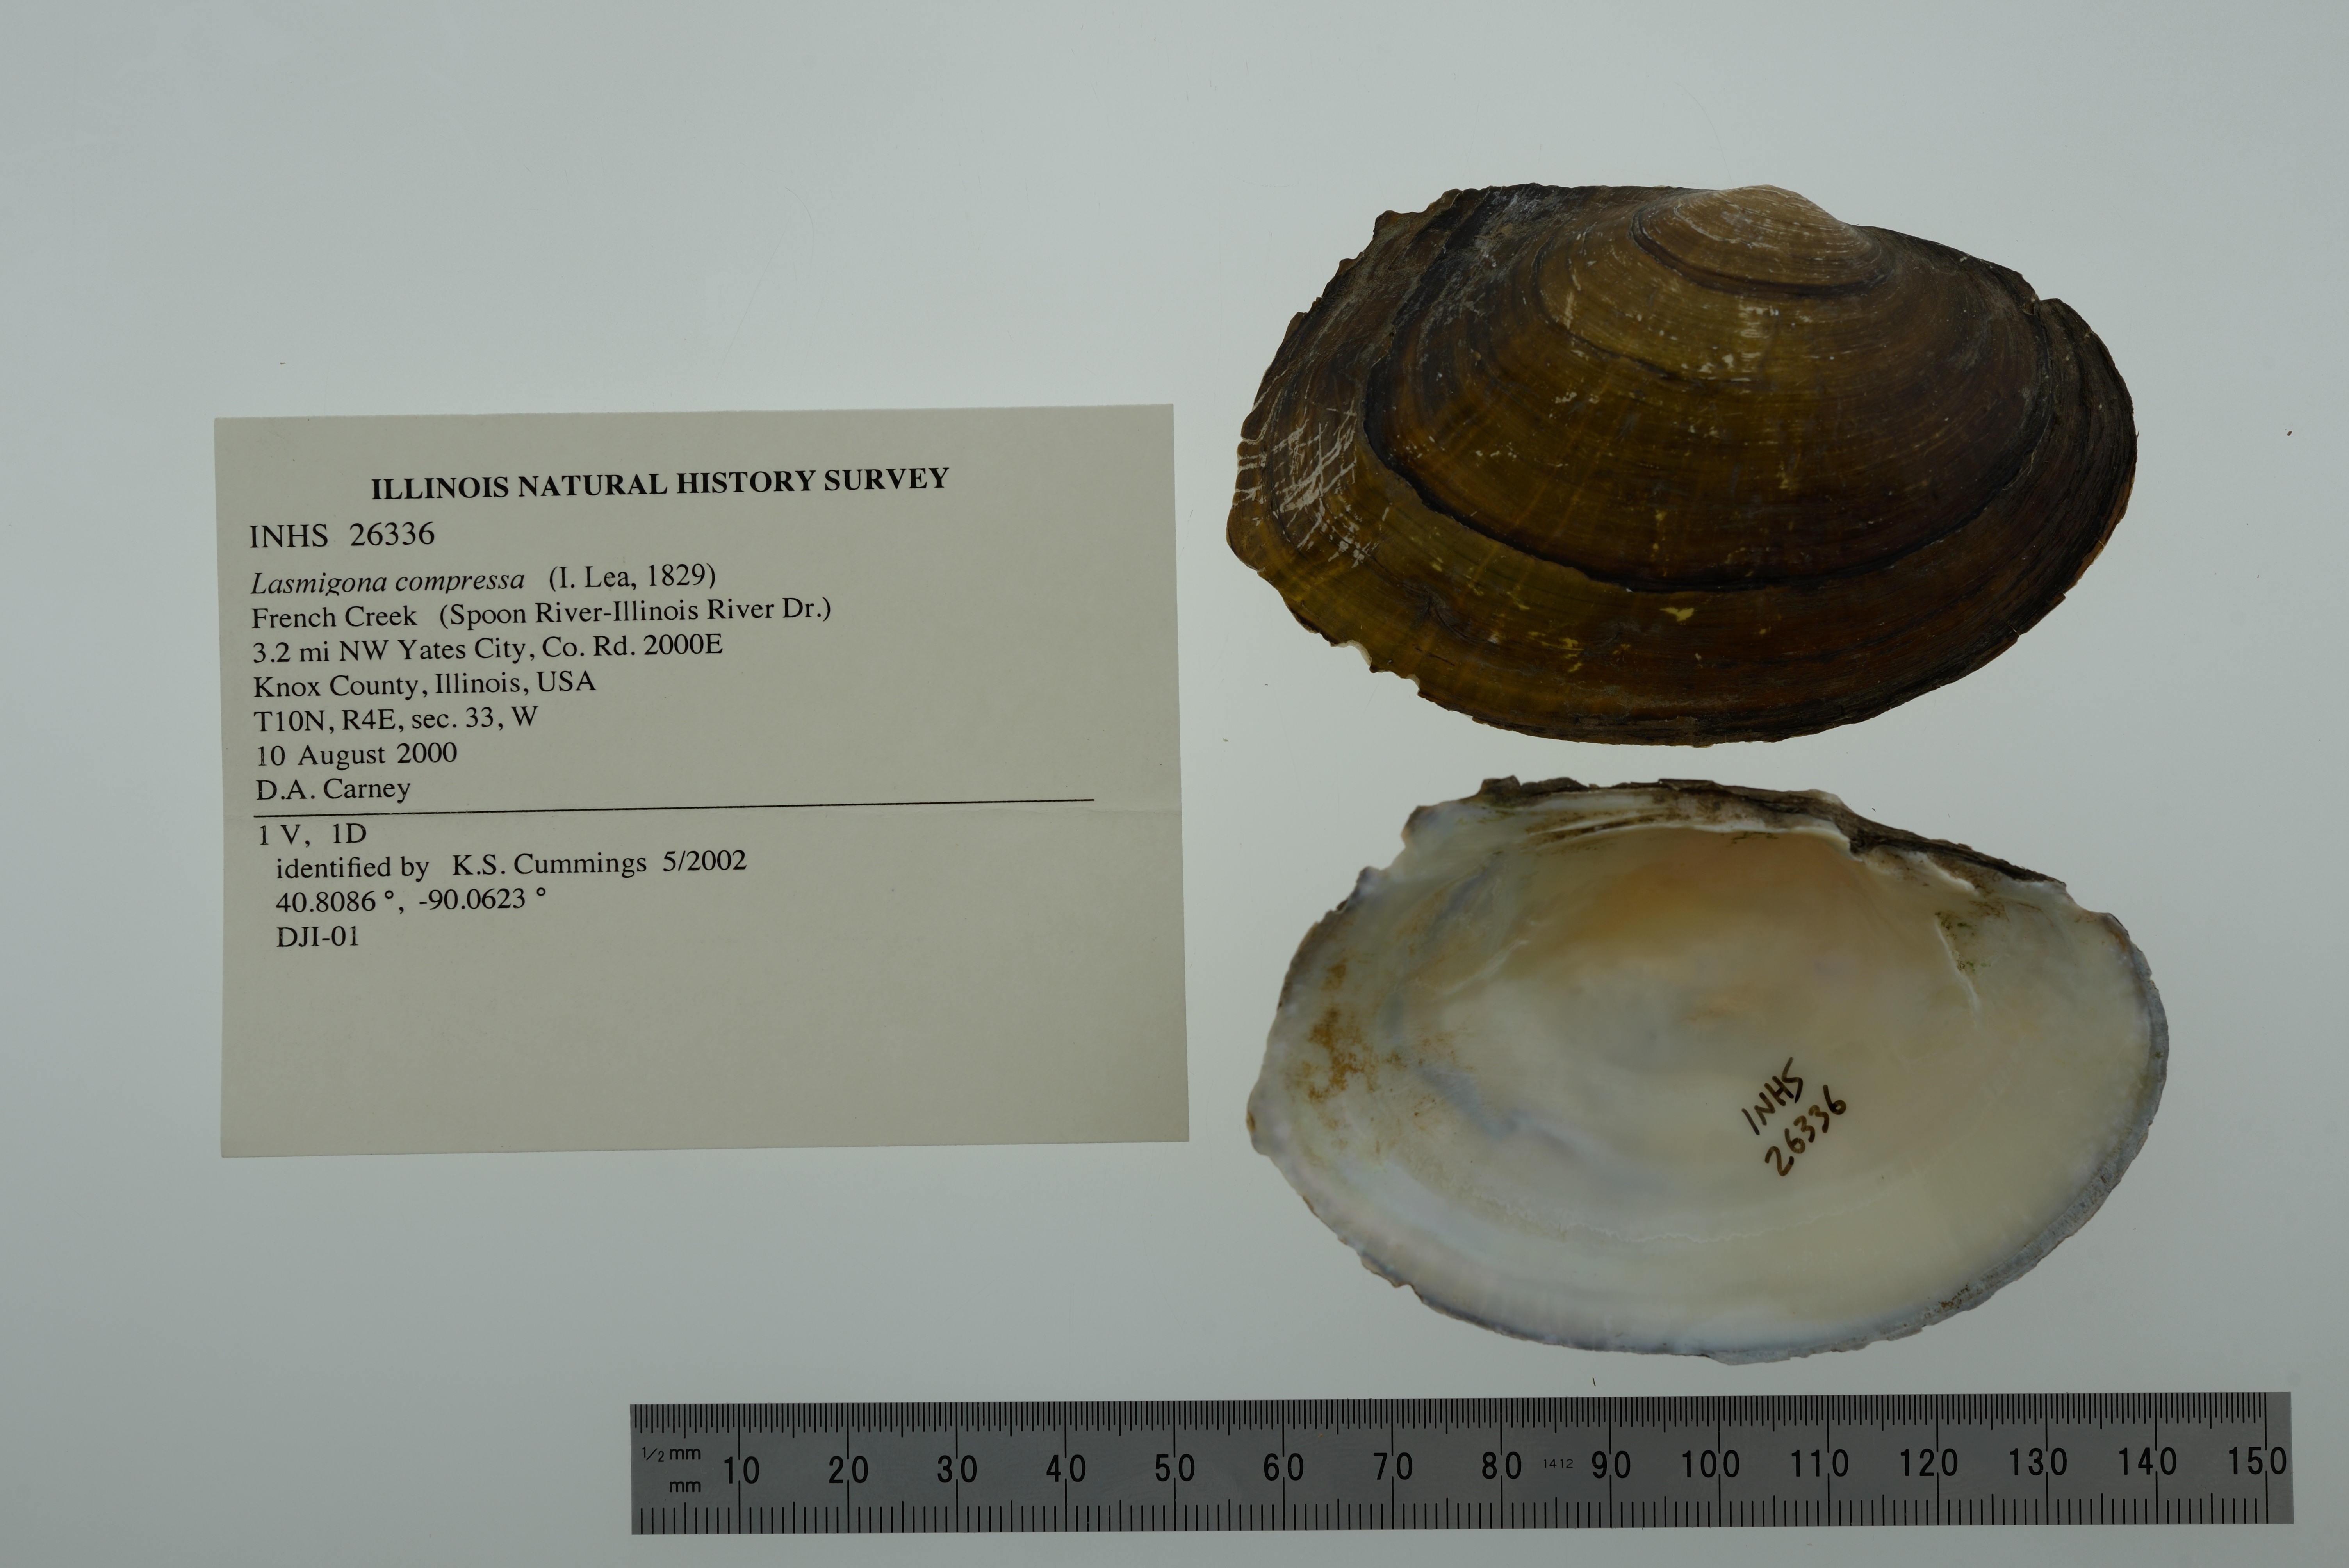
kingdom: Animalia
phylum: Mollusca
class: Bivalvia
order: Unionida
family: Unionidae
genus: Lasmigona
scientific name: Lasmigona compressa
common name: Creek heelsplitter
